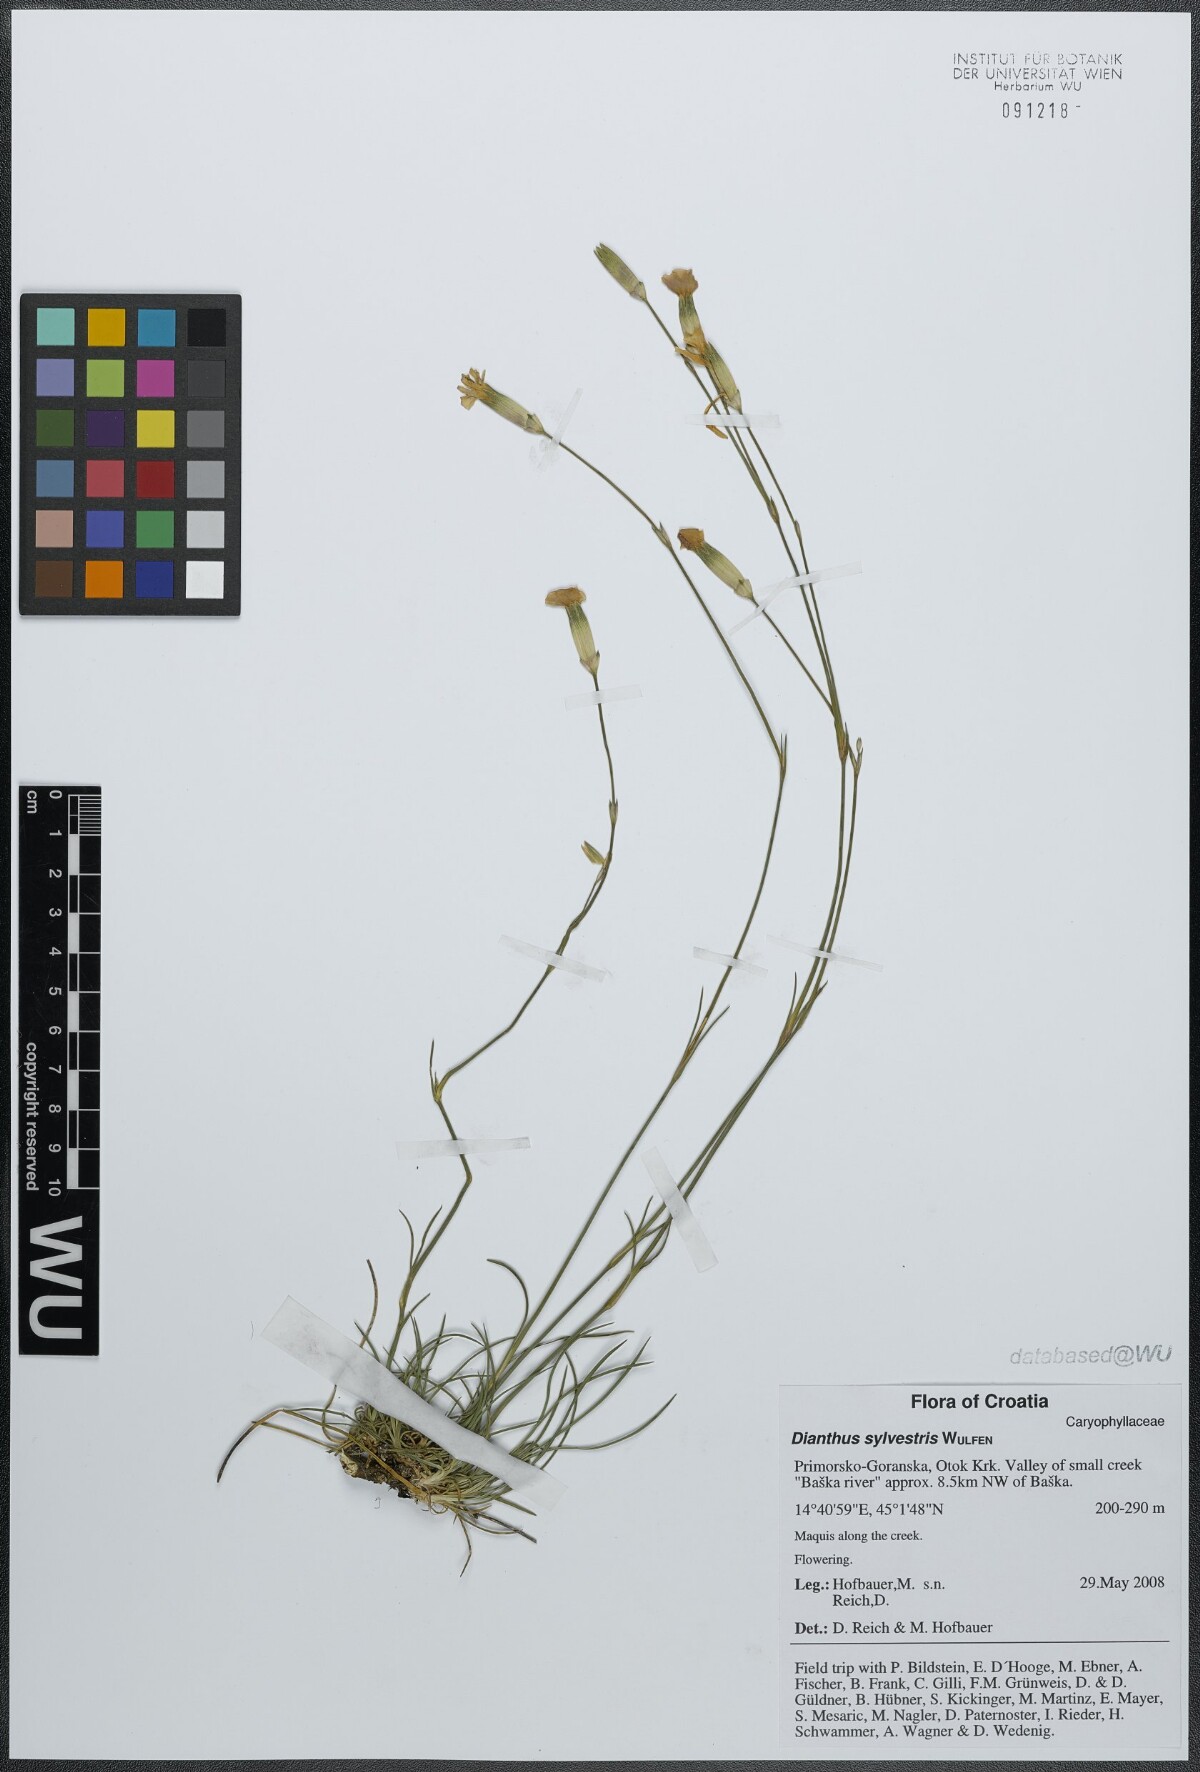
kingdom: Plantae
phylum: Tracheophyta
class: Magnoliopsida
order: Caryophyllales
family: Caryophyllaceae
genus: Dianthus
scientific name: Dianthus sylvestris
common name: Wood pink
